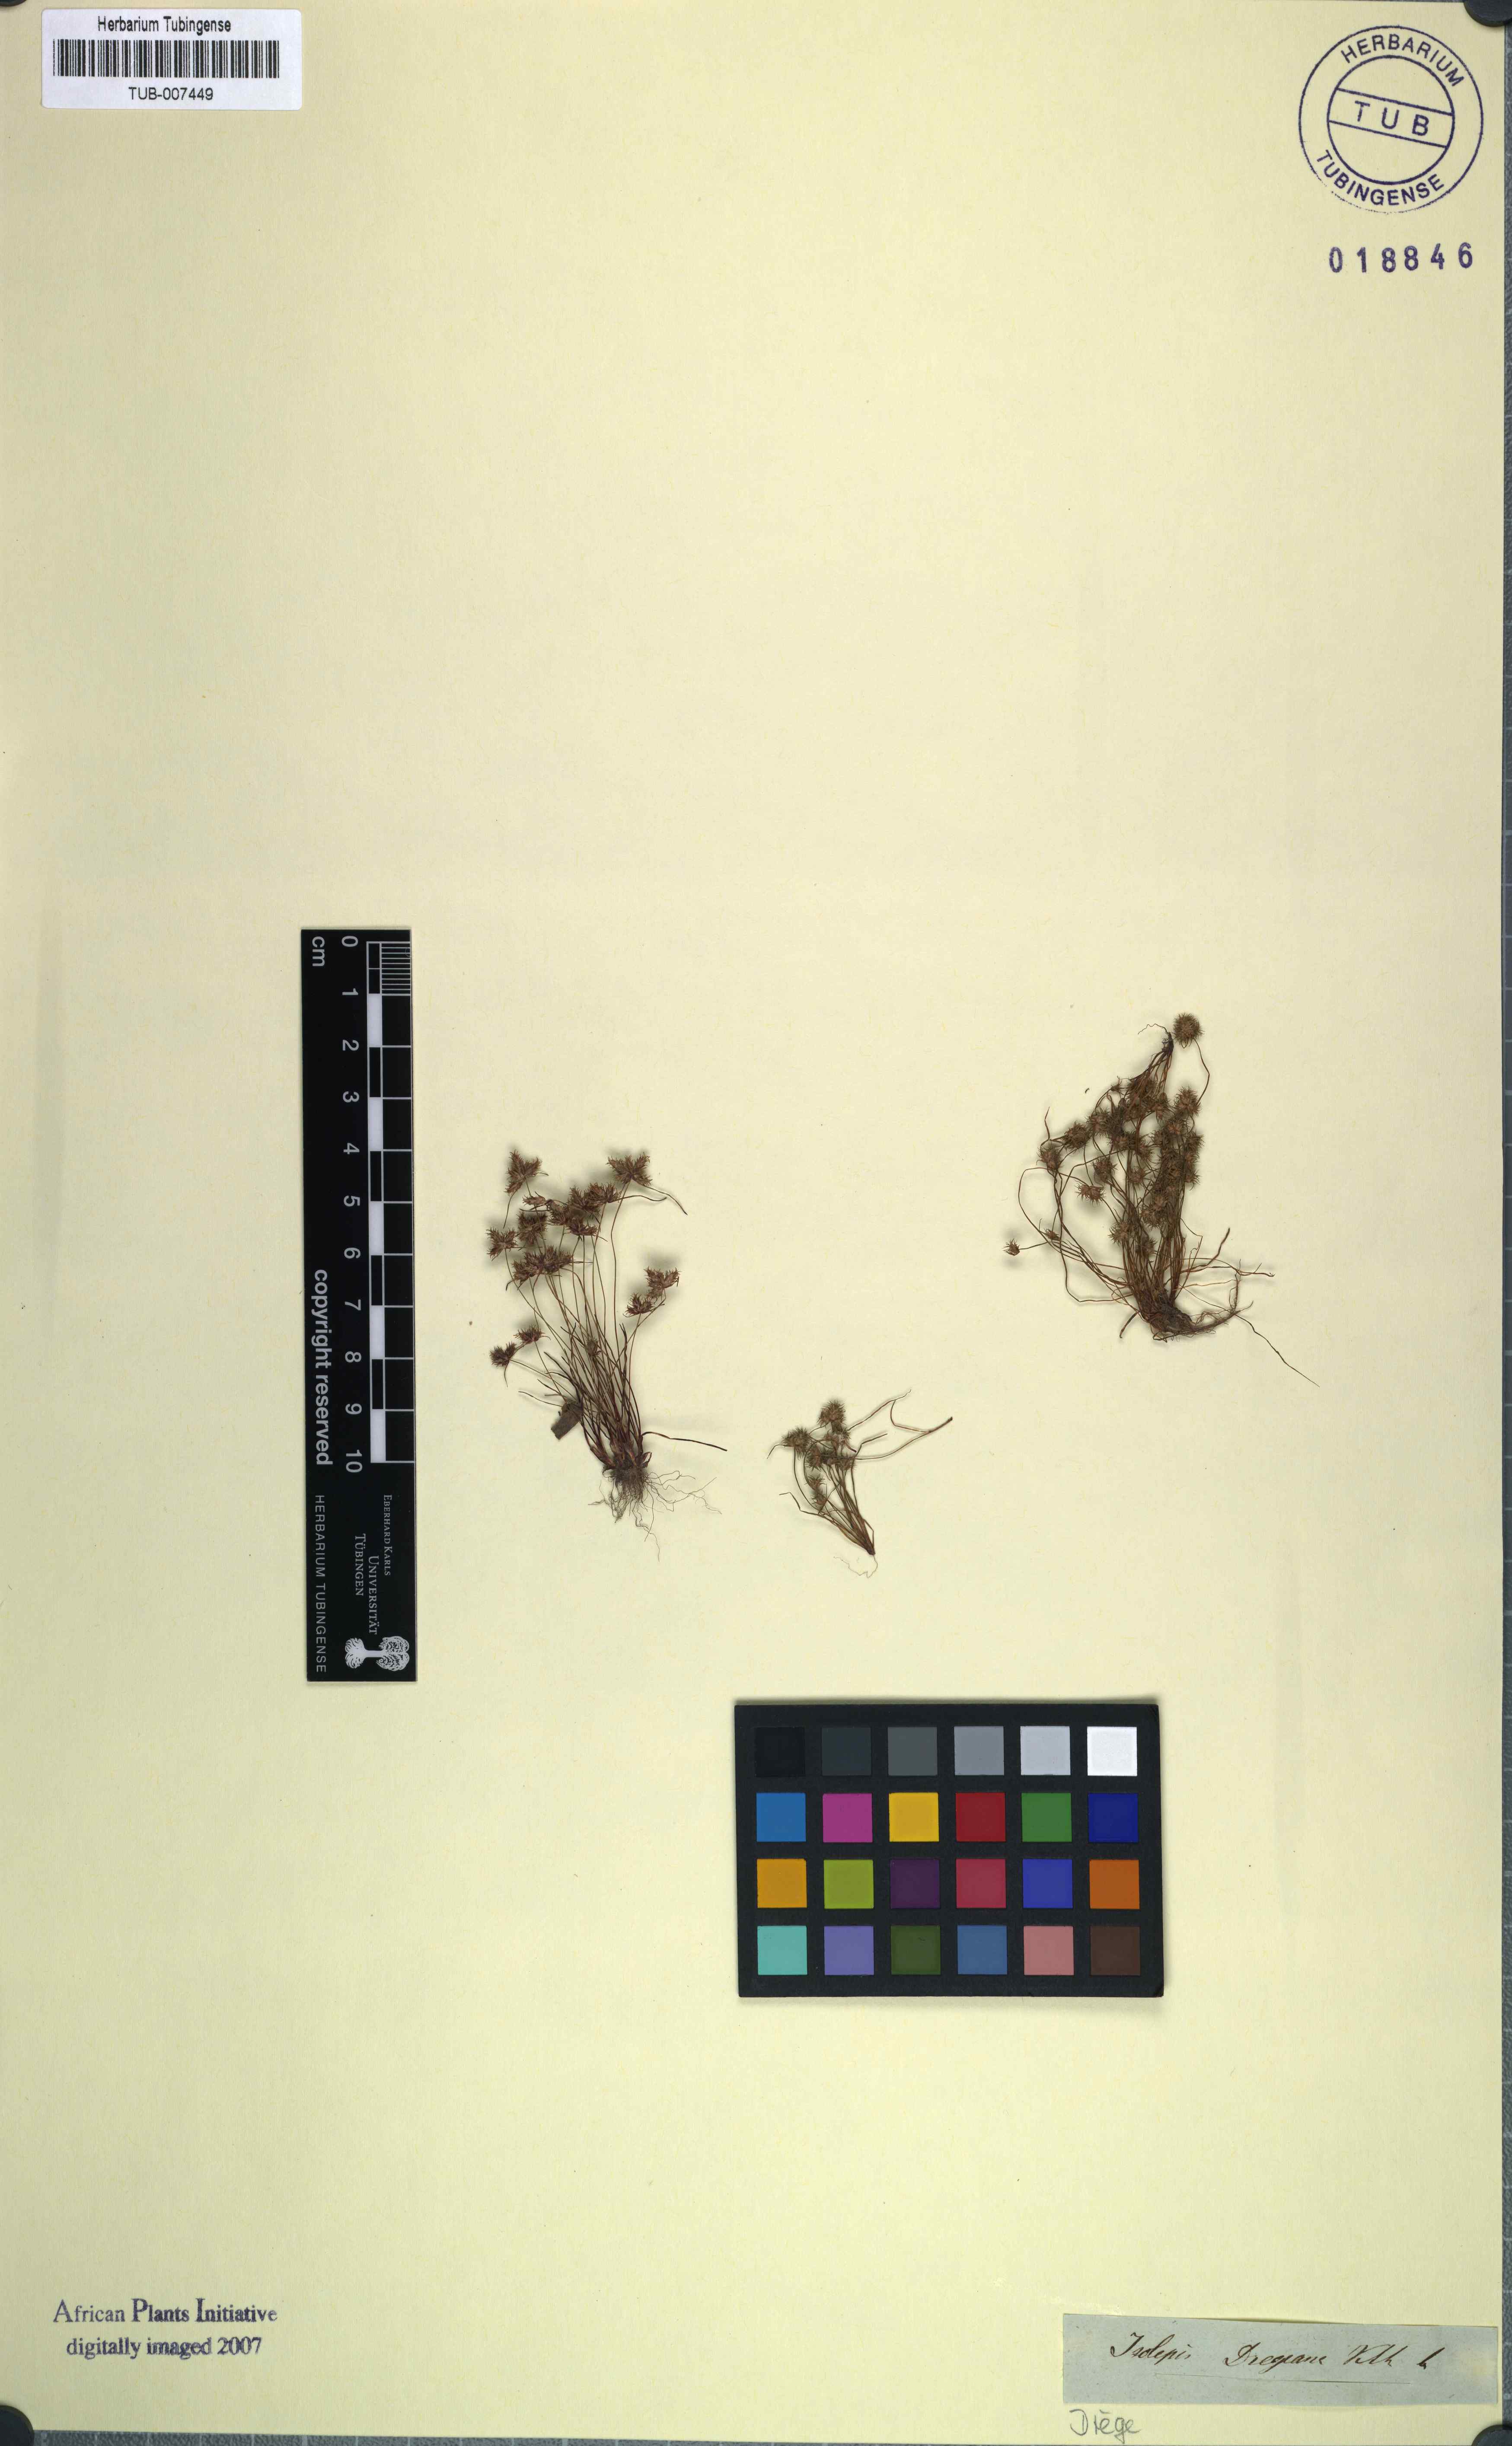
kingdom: Plantae
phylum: Tracheophyta
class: Liliopsida
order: Poales
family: Cyperaceae
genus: Isolepis
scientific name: Isolepis hystrix
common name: Bottlebrush bulrush
